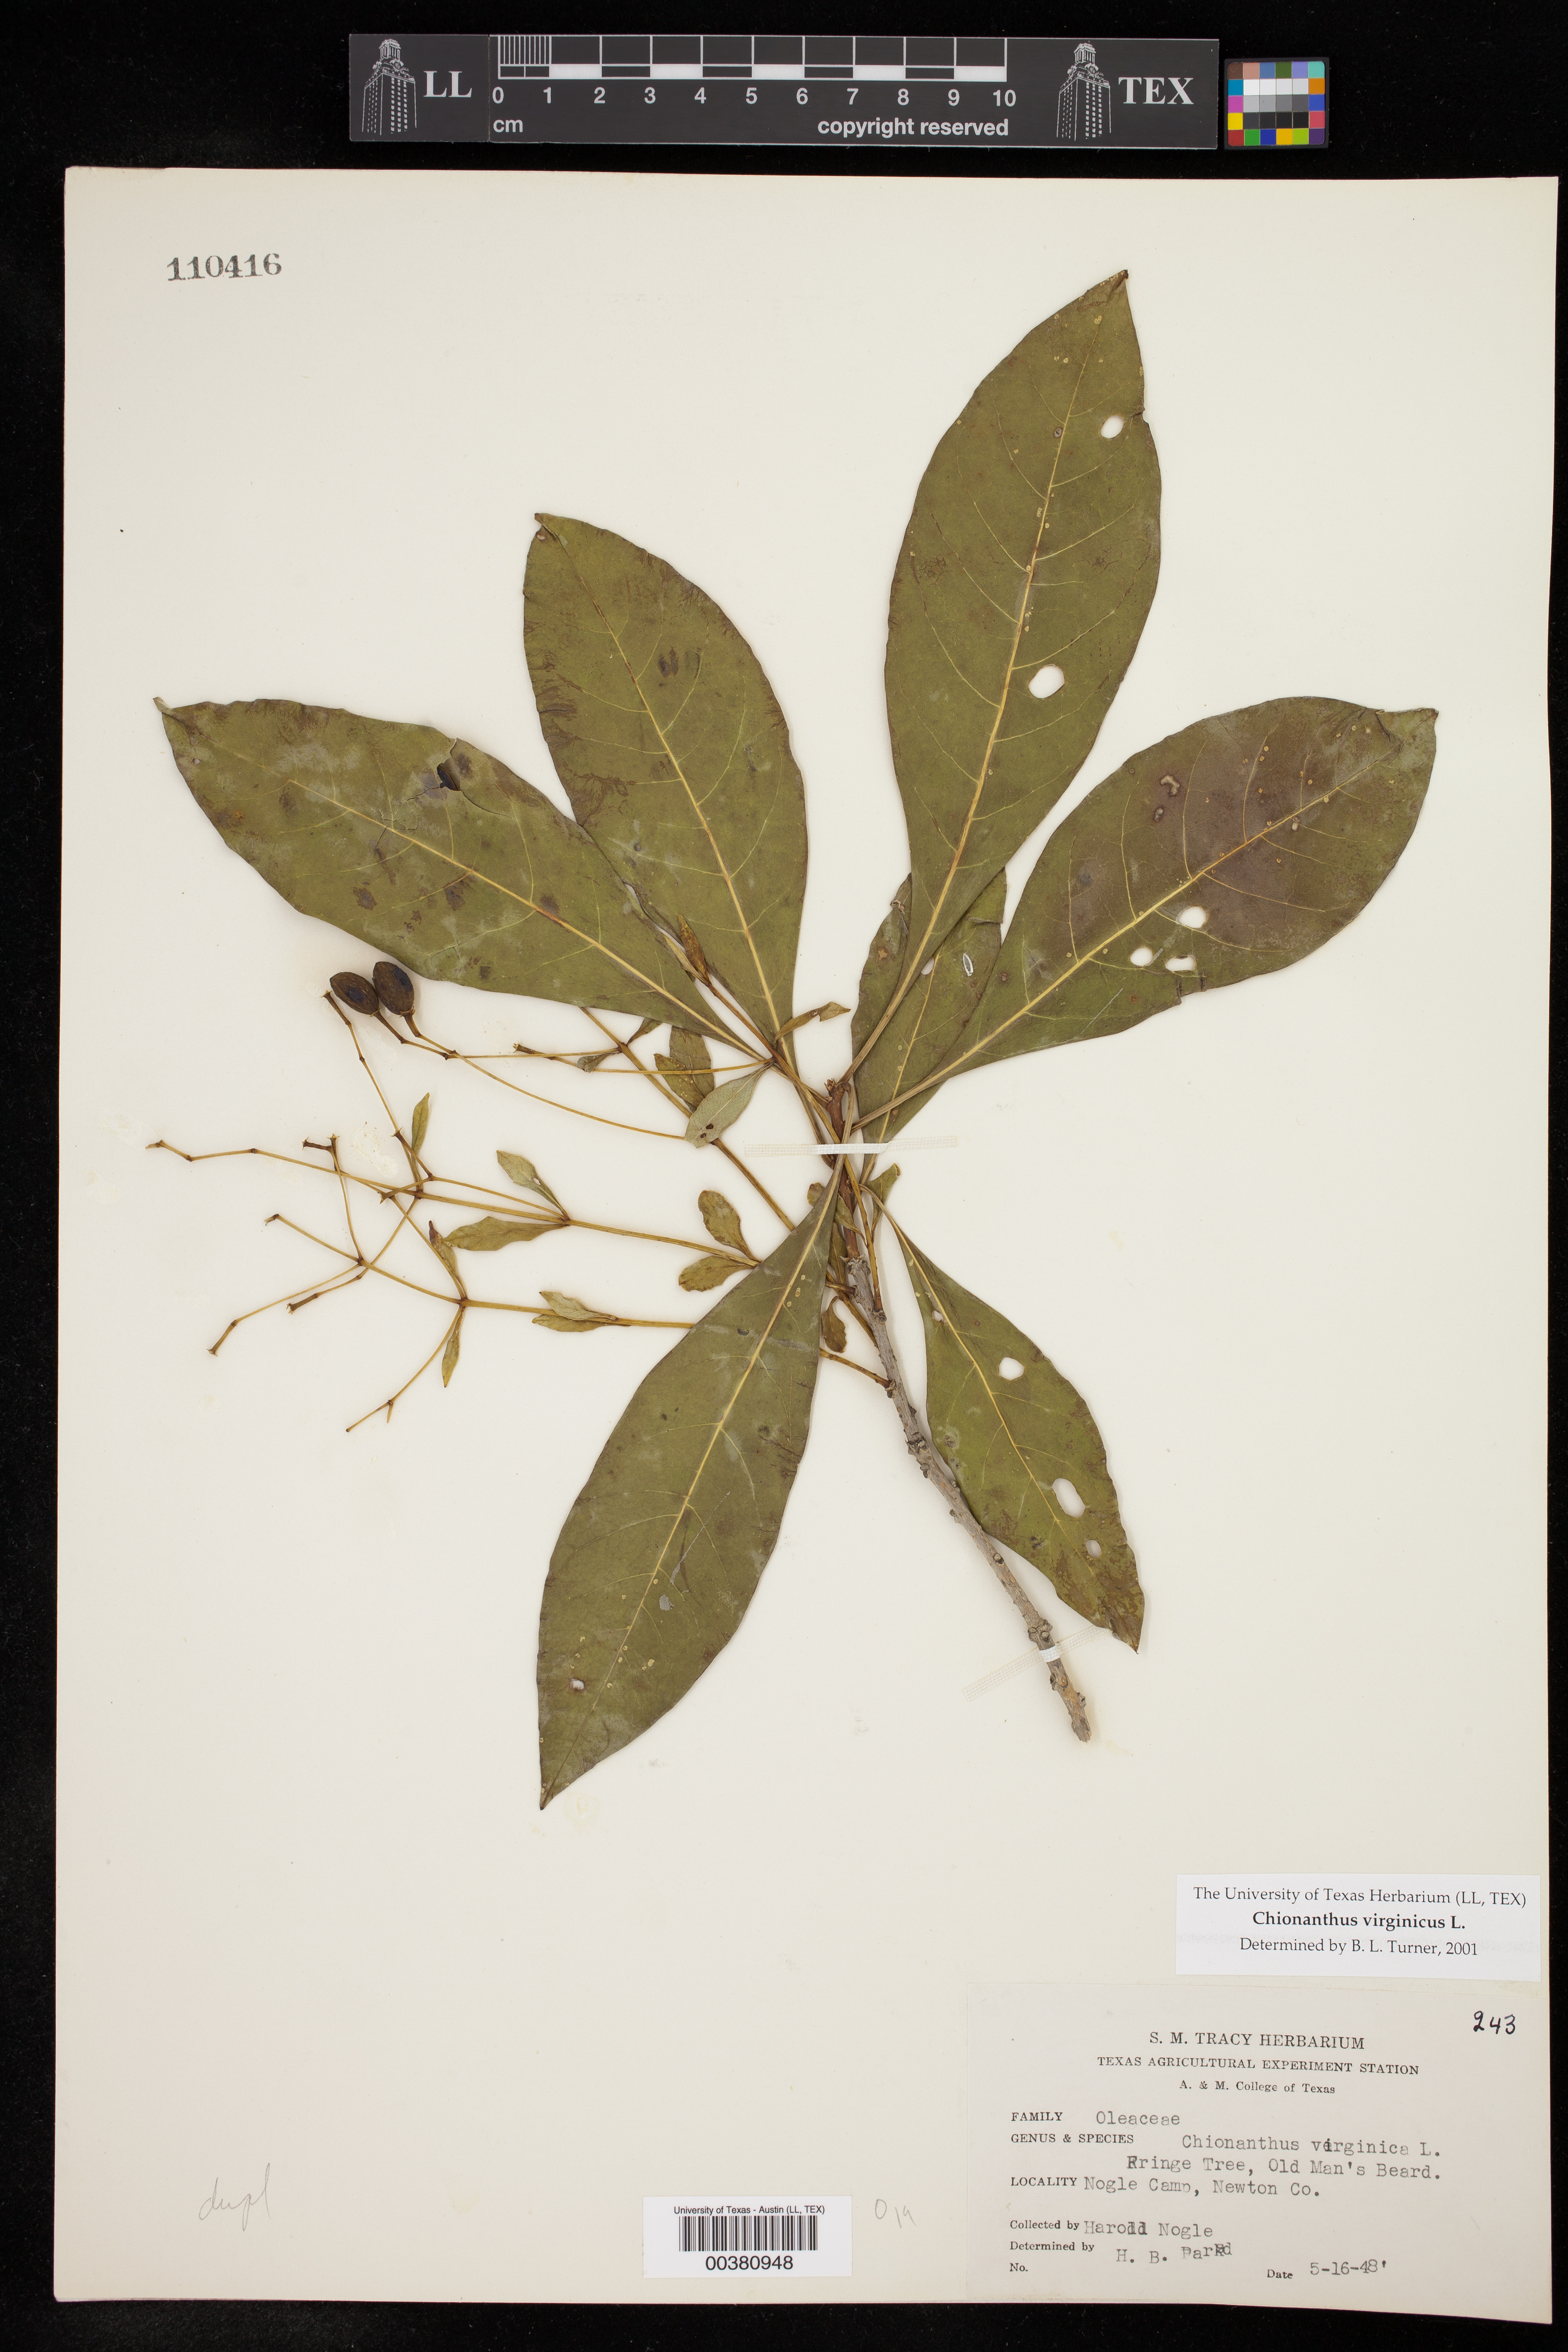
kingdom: Plantae
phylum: Tracheophyta
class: Magnoliopsida
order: Lamiales
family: Oleaceae
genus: Chionanthus
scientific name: Chionanthus virginicus
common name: American fringetree
